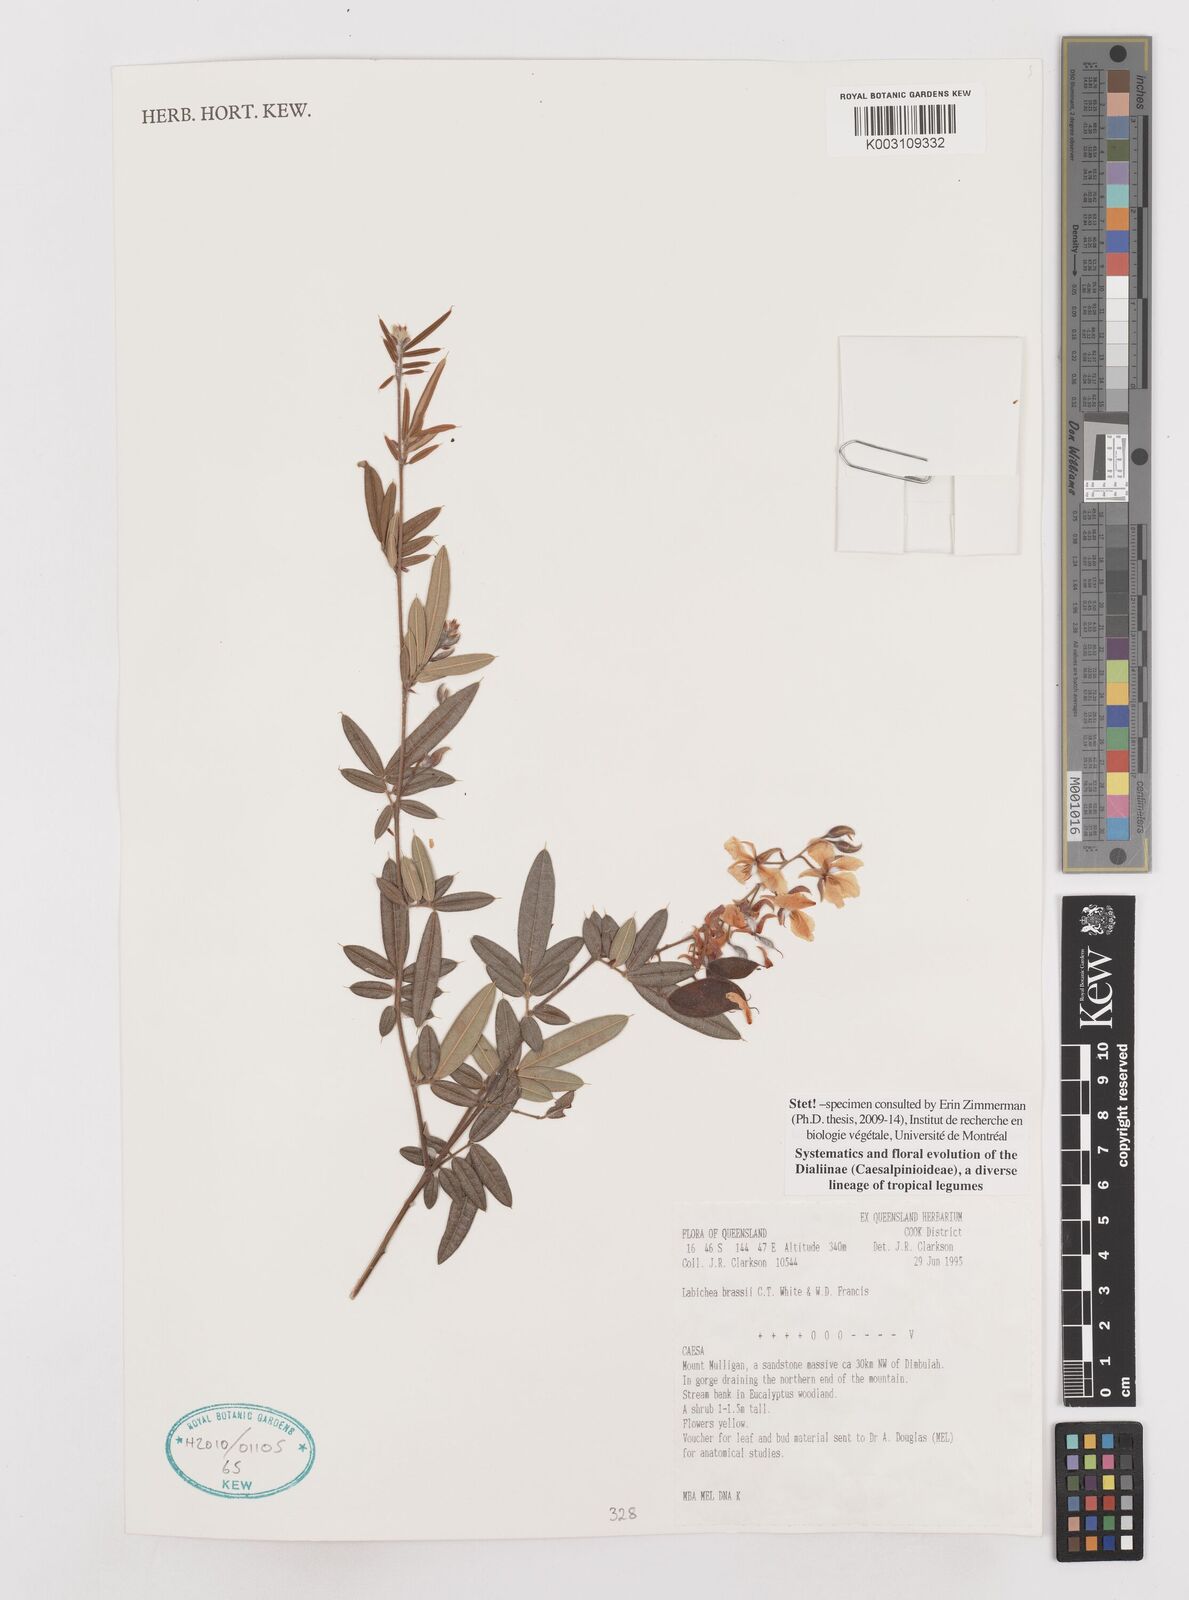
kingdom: Plantae
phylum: Tracheophyta
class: Magnoliopsida
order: Fabales
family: Fabaceae
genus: Labichea
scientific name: Labichea brassii
